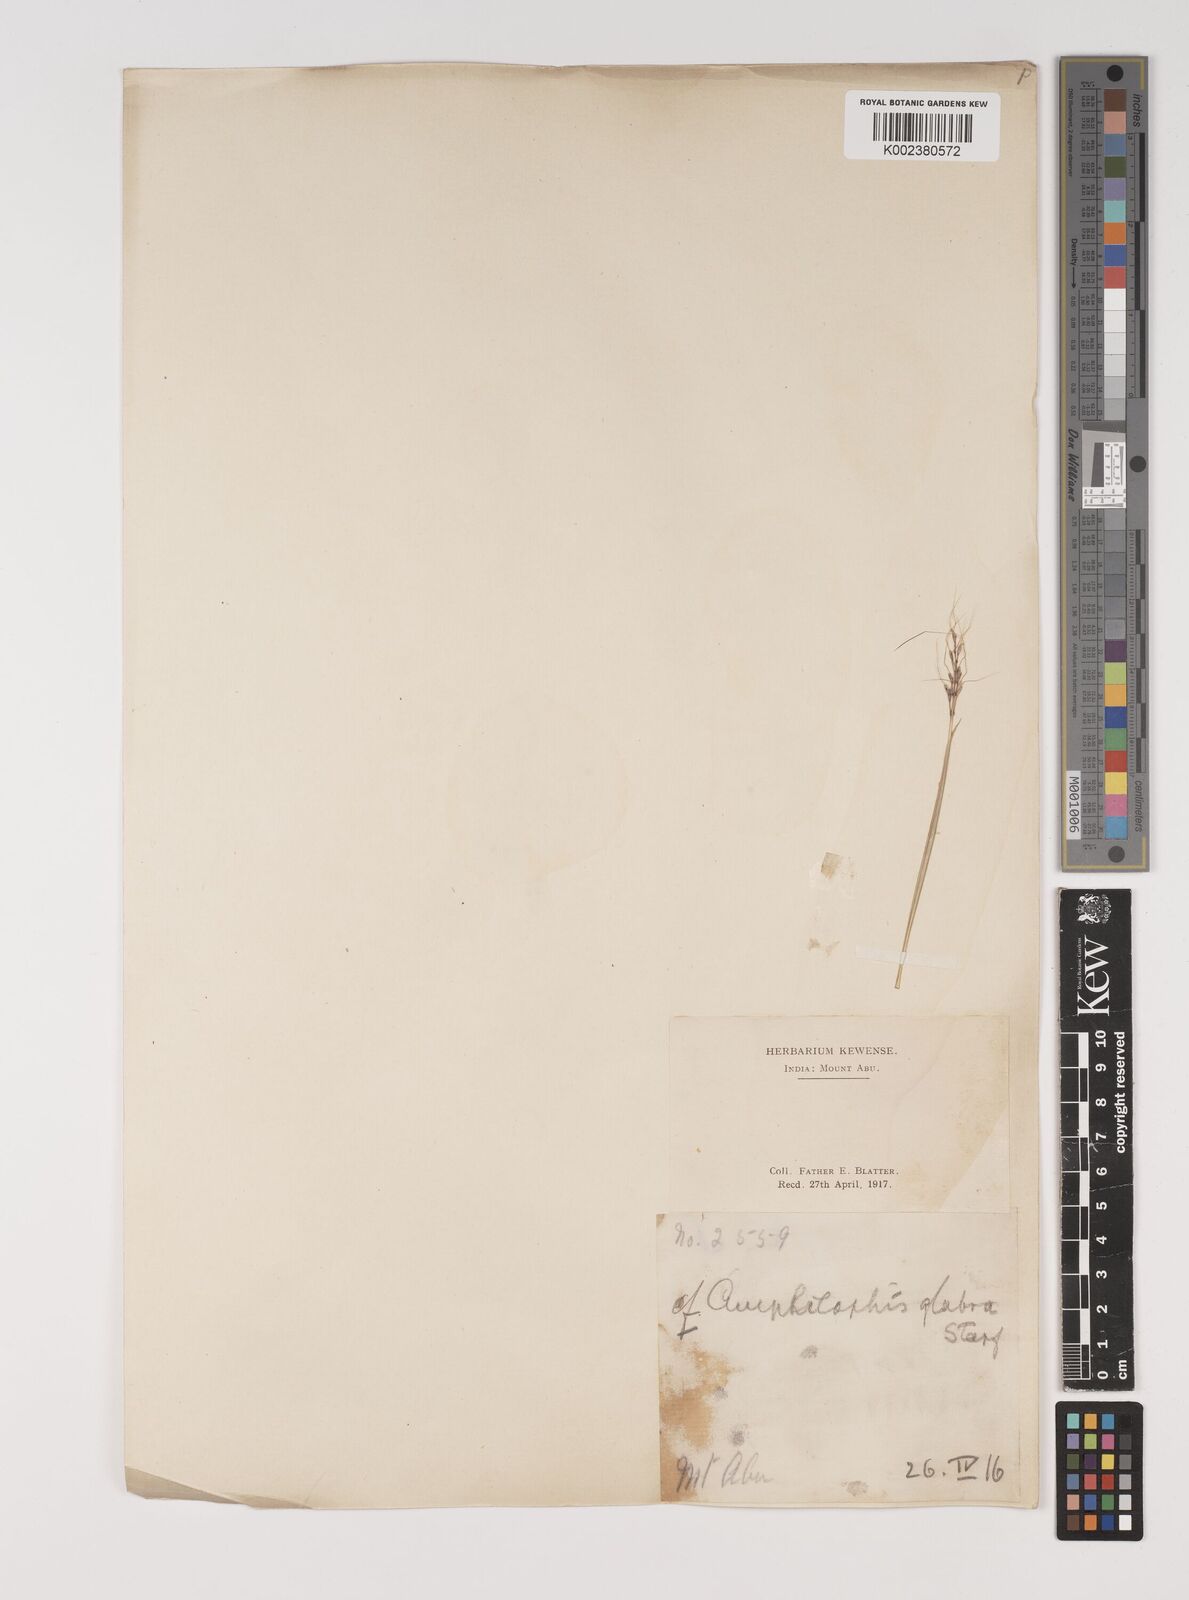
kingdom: Plantae
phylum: Tracheophyta
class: Liliopsida
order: Poales
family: Poaceae
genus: Bothriochloa
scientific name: Bothriochloa bladhii
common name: Caucasian bluestem
